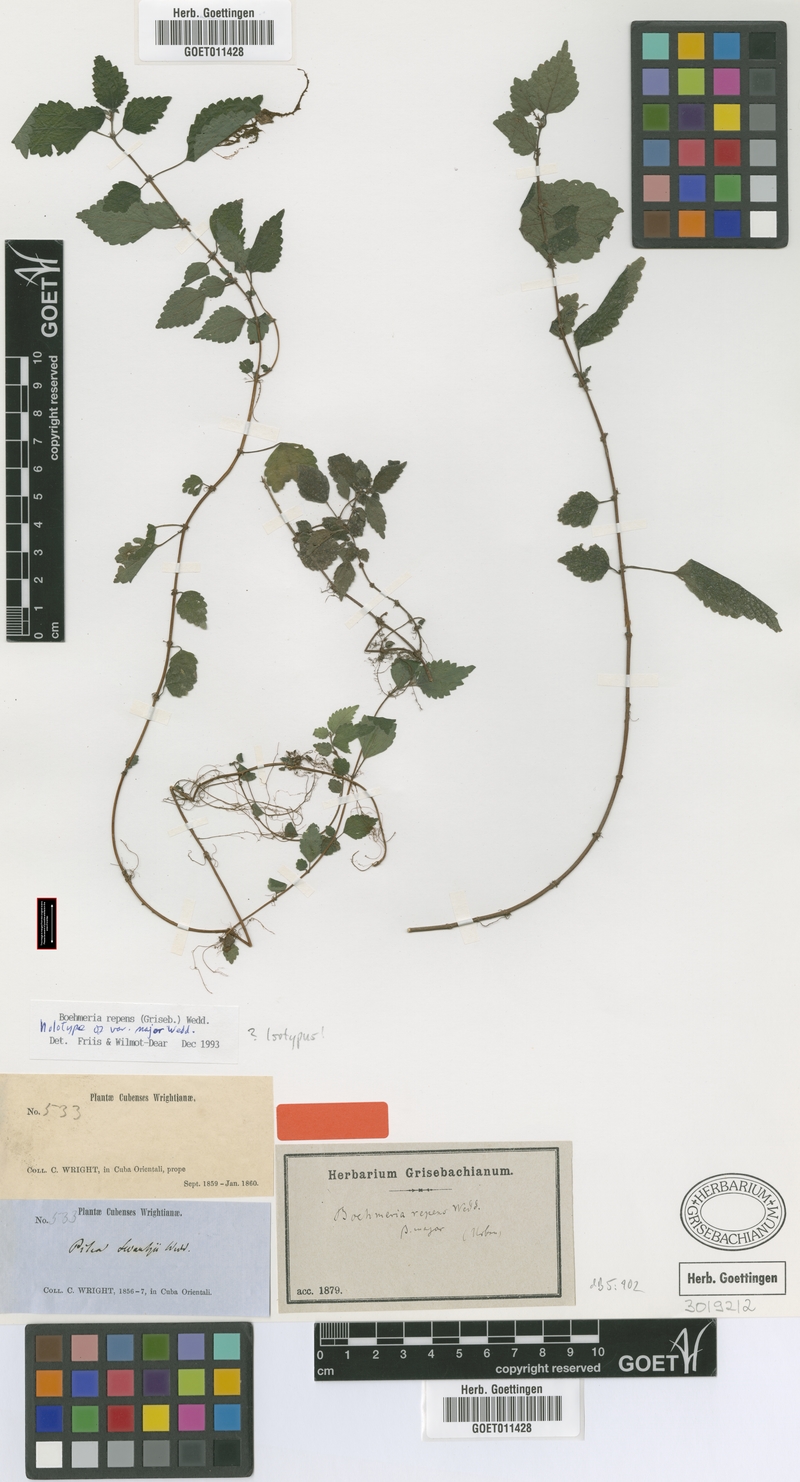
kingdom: Plantae
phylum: Tracheophyta
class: Magnoliopsida
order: Rosales
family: Urticaceae
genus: Boehmeria
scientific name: Boehmeria repens
